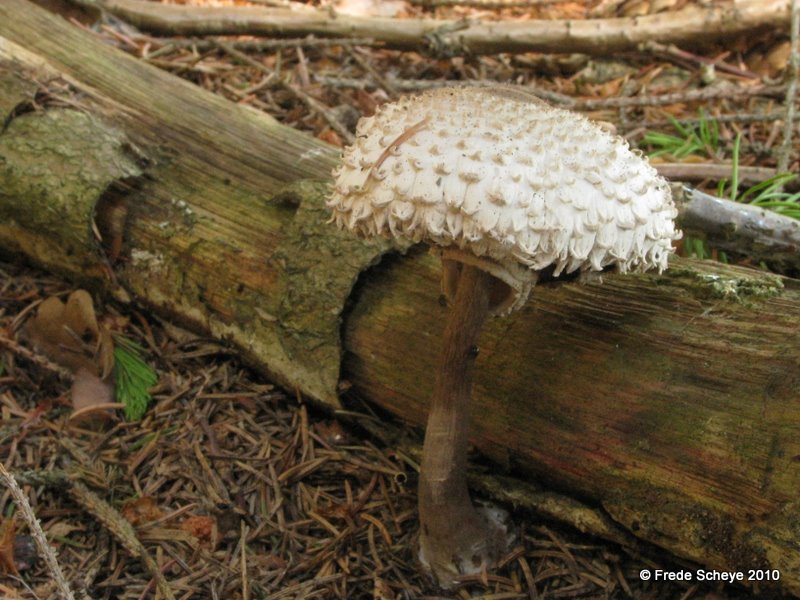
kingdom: Fungi
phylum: Basidiomycota
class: Agaricomycetes
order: Agaricales
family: Agaricaceae
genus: Leucoagaricus
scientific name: Leucoagaricus nympharum
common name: gran-silkehat
